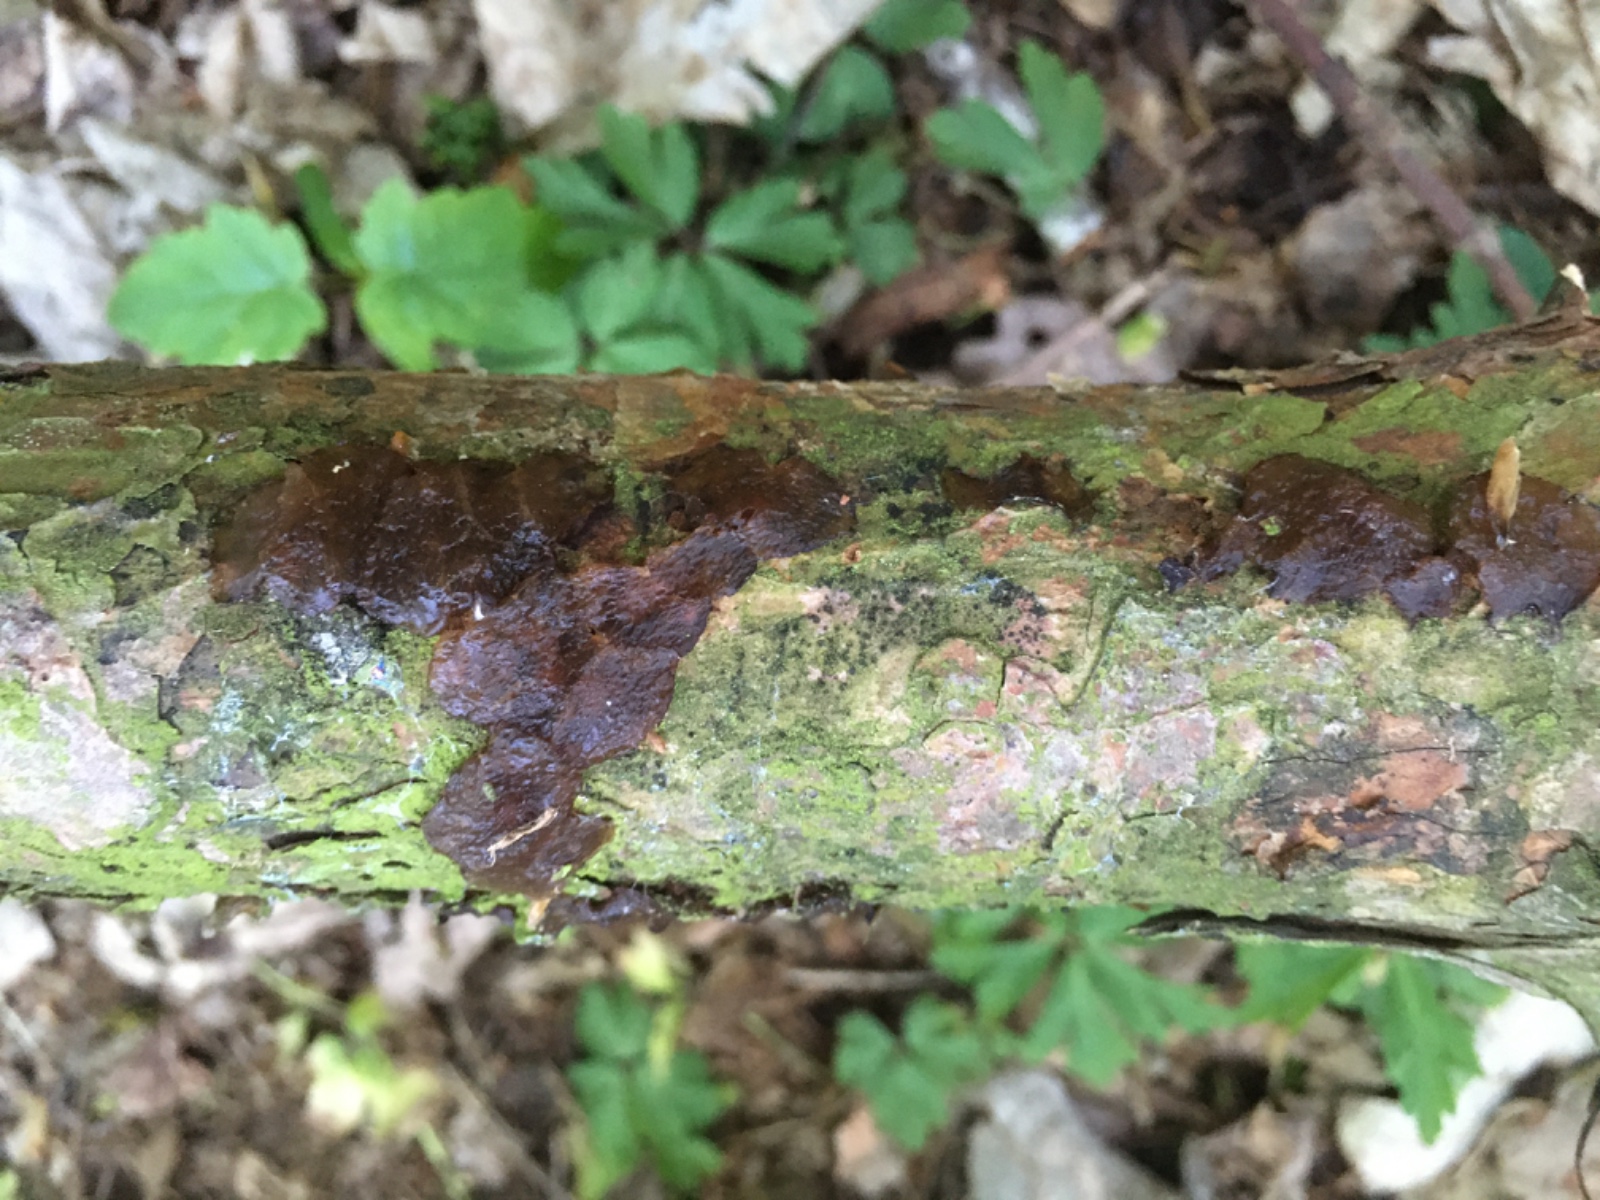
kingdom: Fungi
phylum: Basidiomycota
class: Agaricomycetes
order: Auriculariales
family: Auriculariaceae
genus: Exidia
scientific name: Exidia saccharina
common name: kandis-bævretop
